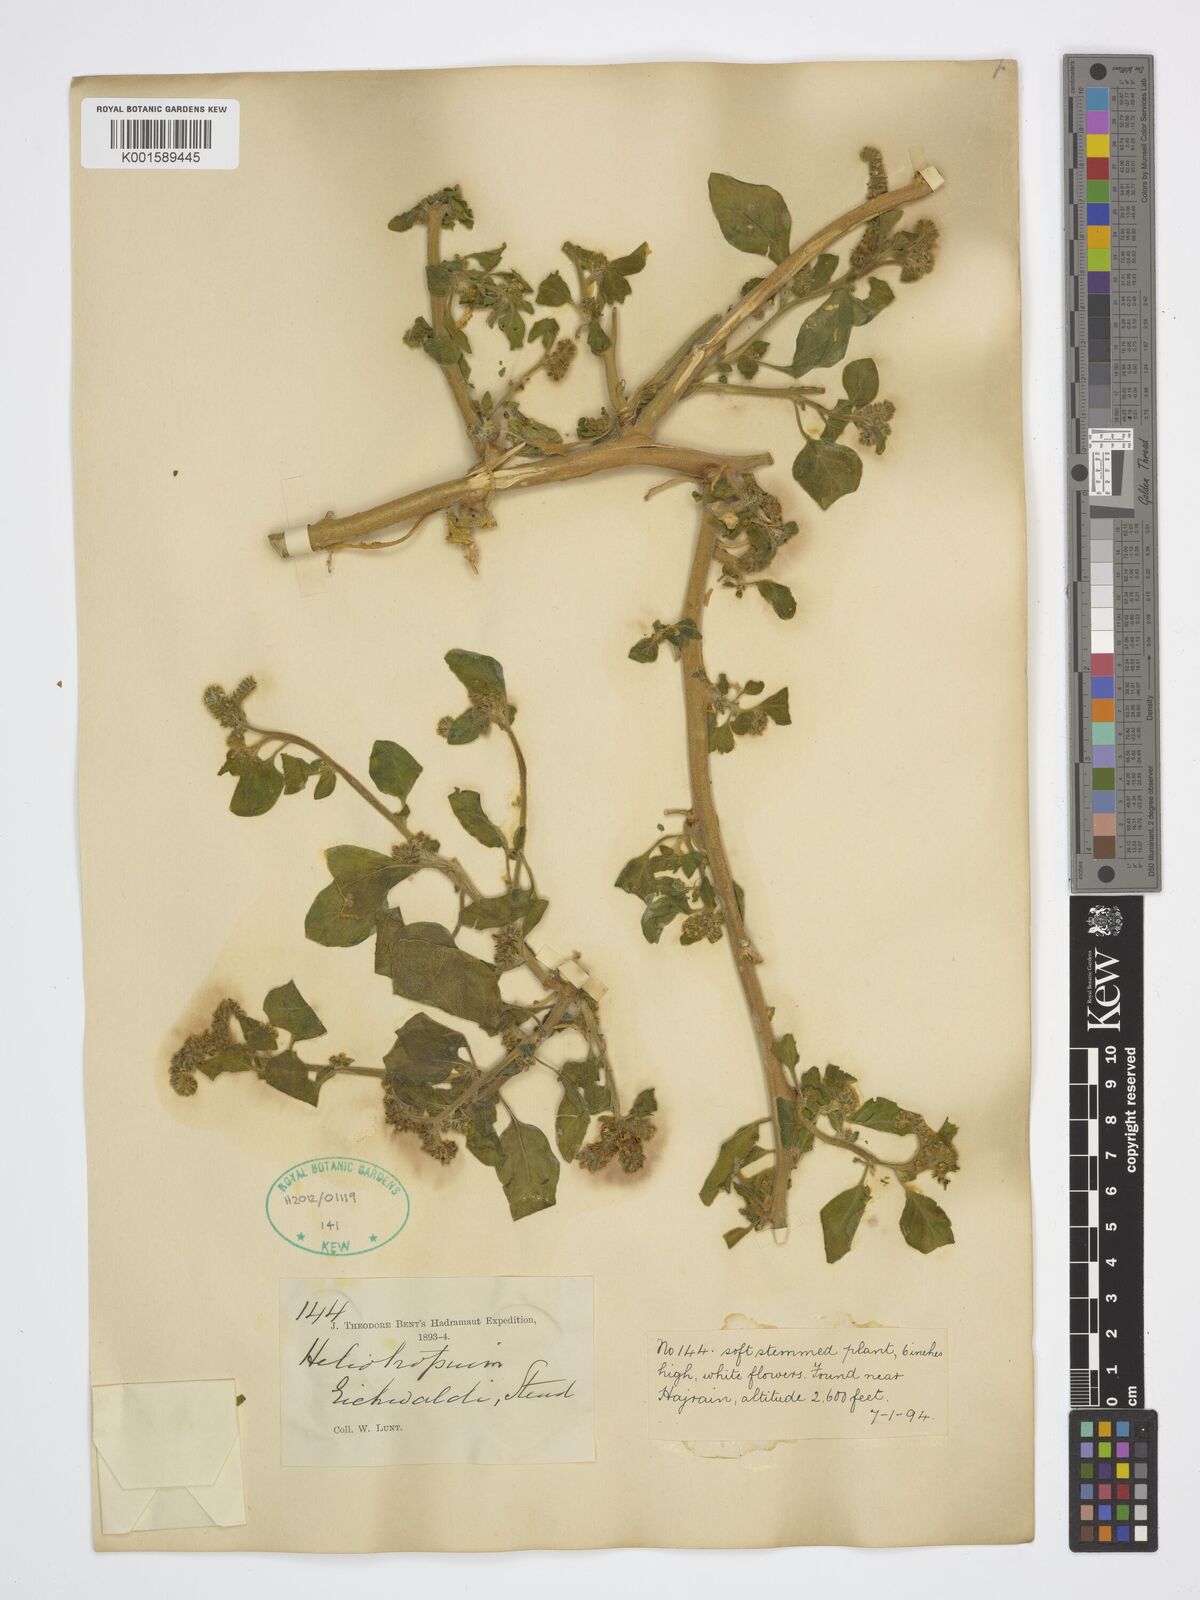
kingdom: Plantae
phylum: Tracheophyta
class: Magnoliopsida
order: Boraginales
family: Heliotropiaceae
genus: Heliotropium
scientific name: Heliotropium ellipticum
